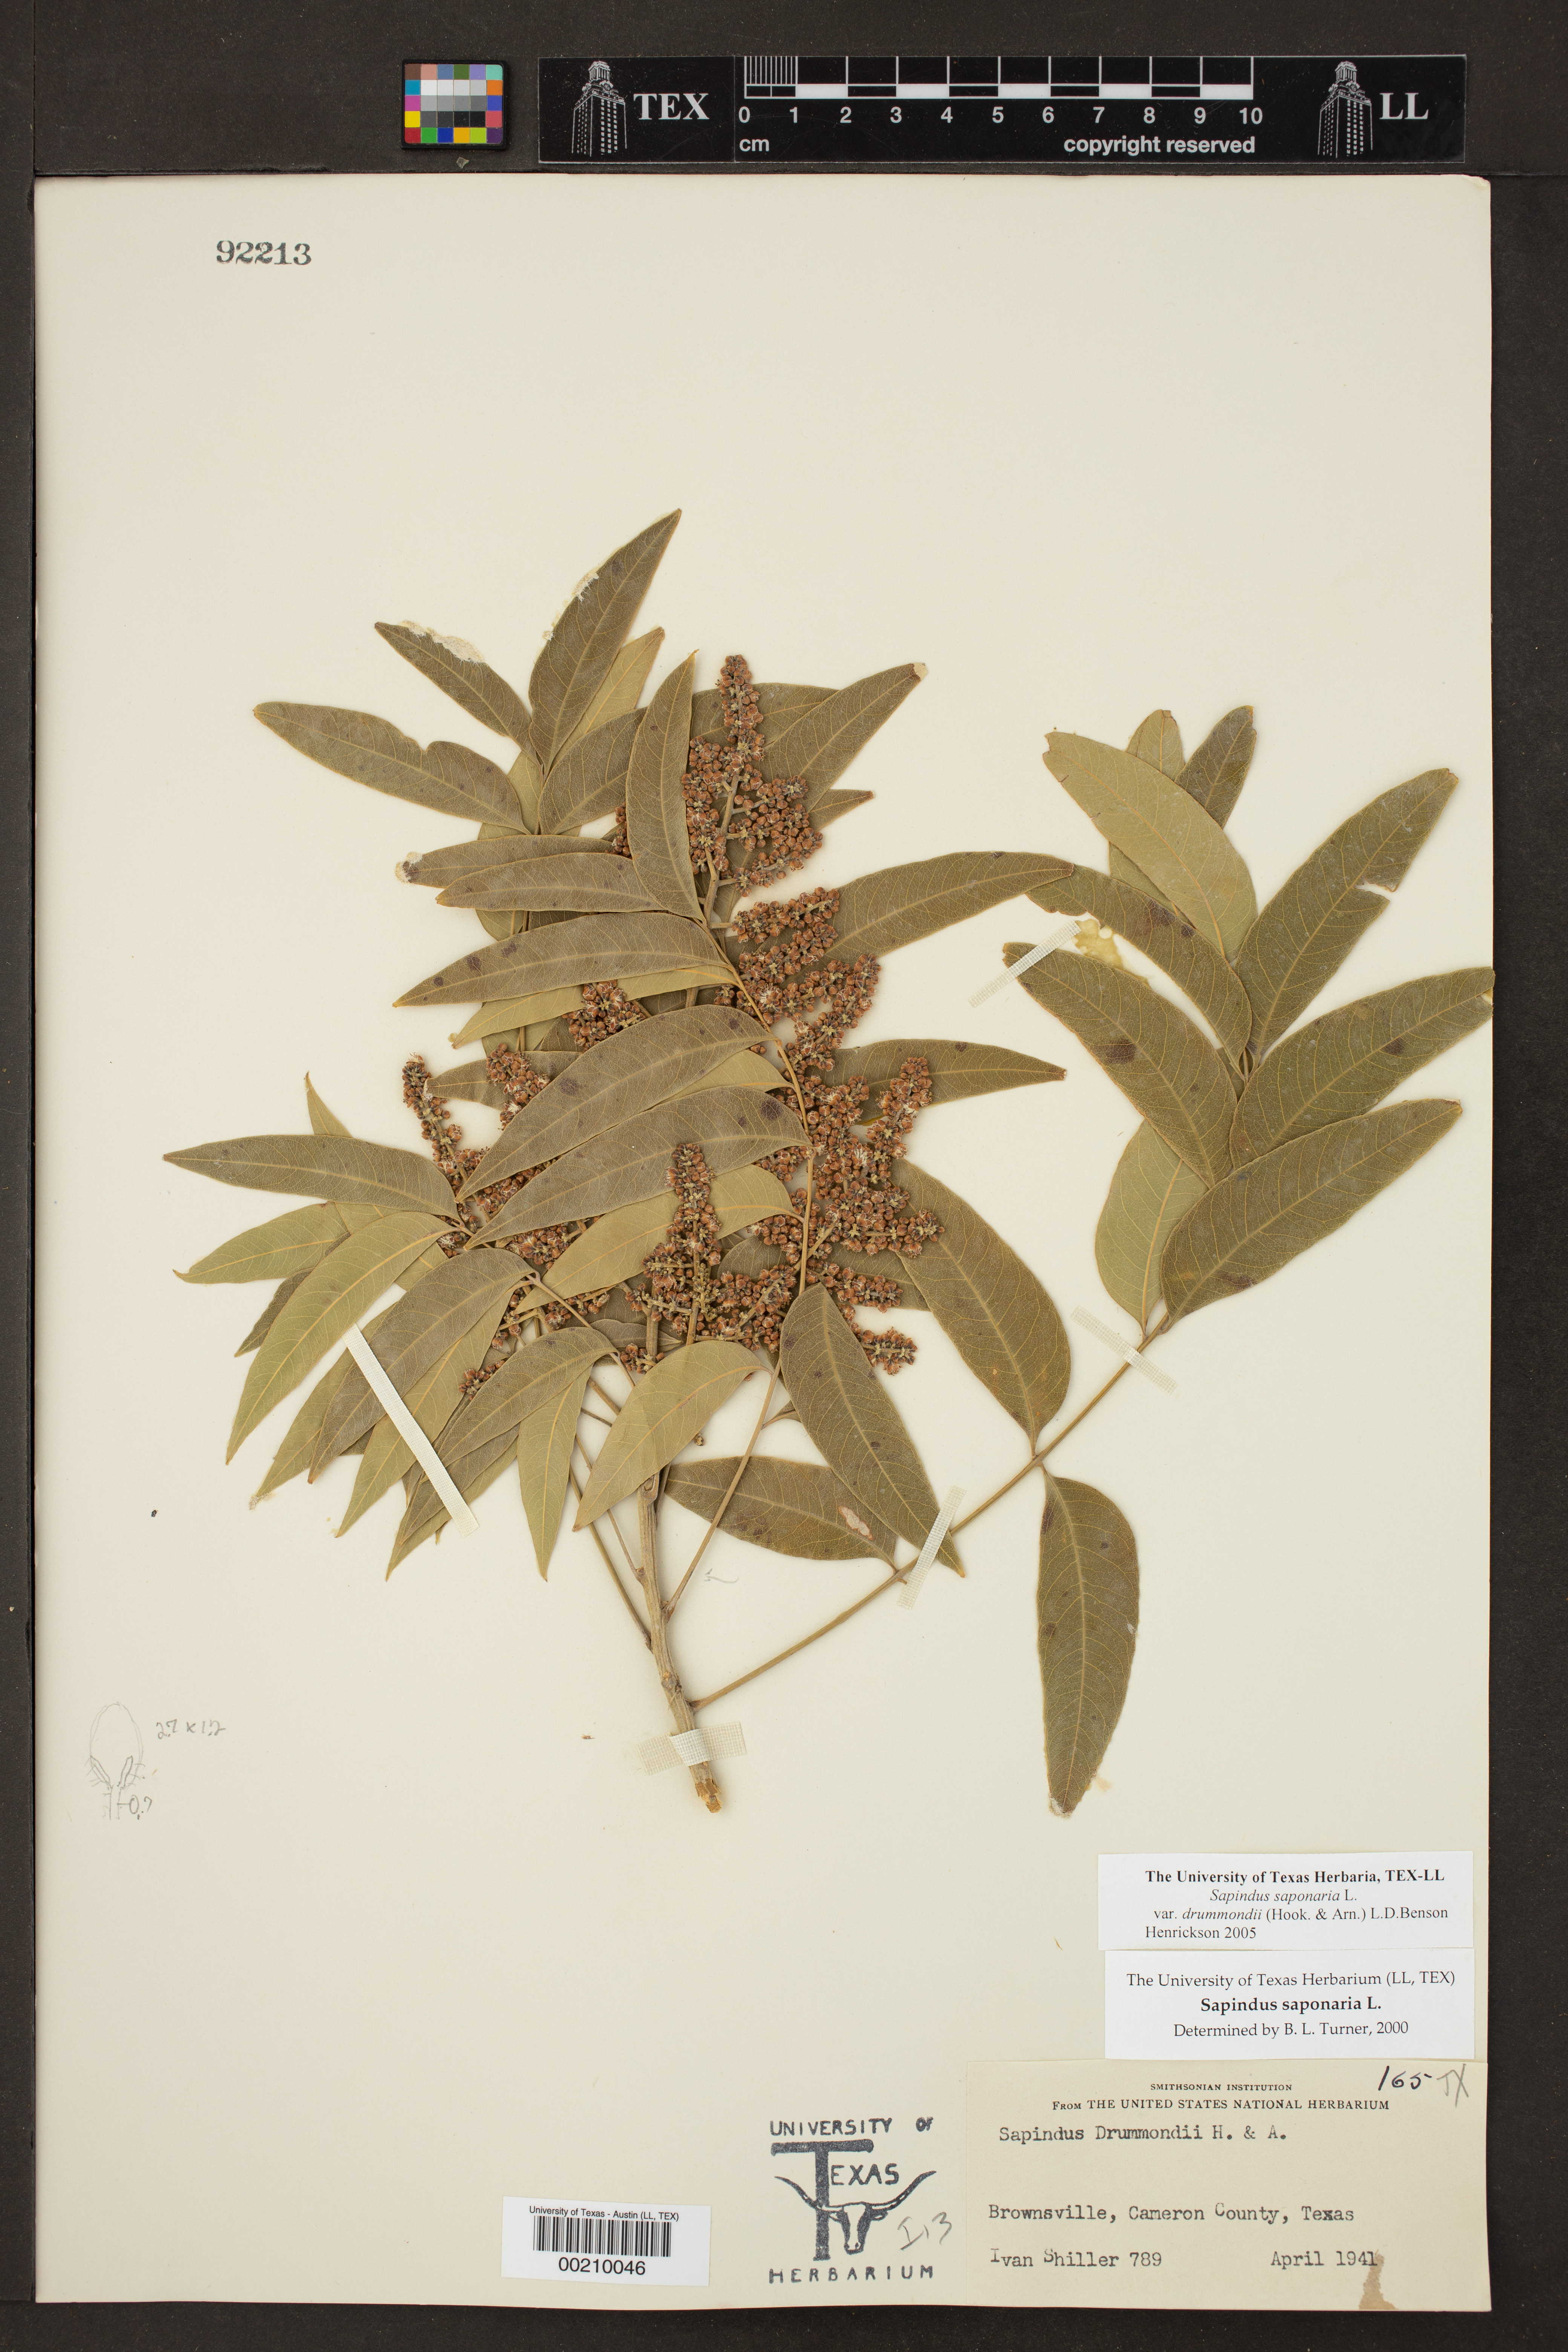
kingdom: Plantae
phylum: Tracheophyta
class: Magnoliopsida
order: Sapindales
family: Sapindaceae
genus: Sapindus
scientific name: Sapindus drummondii
